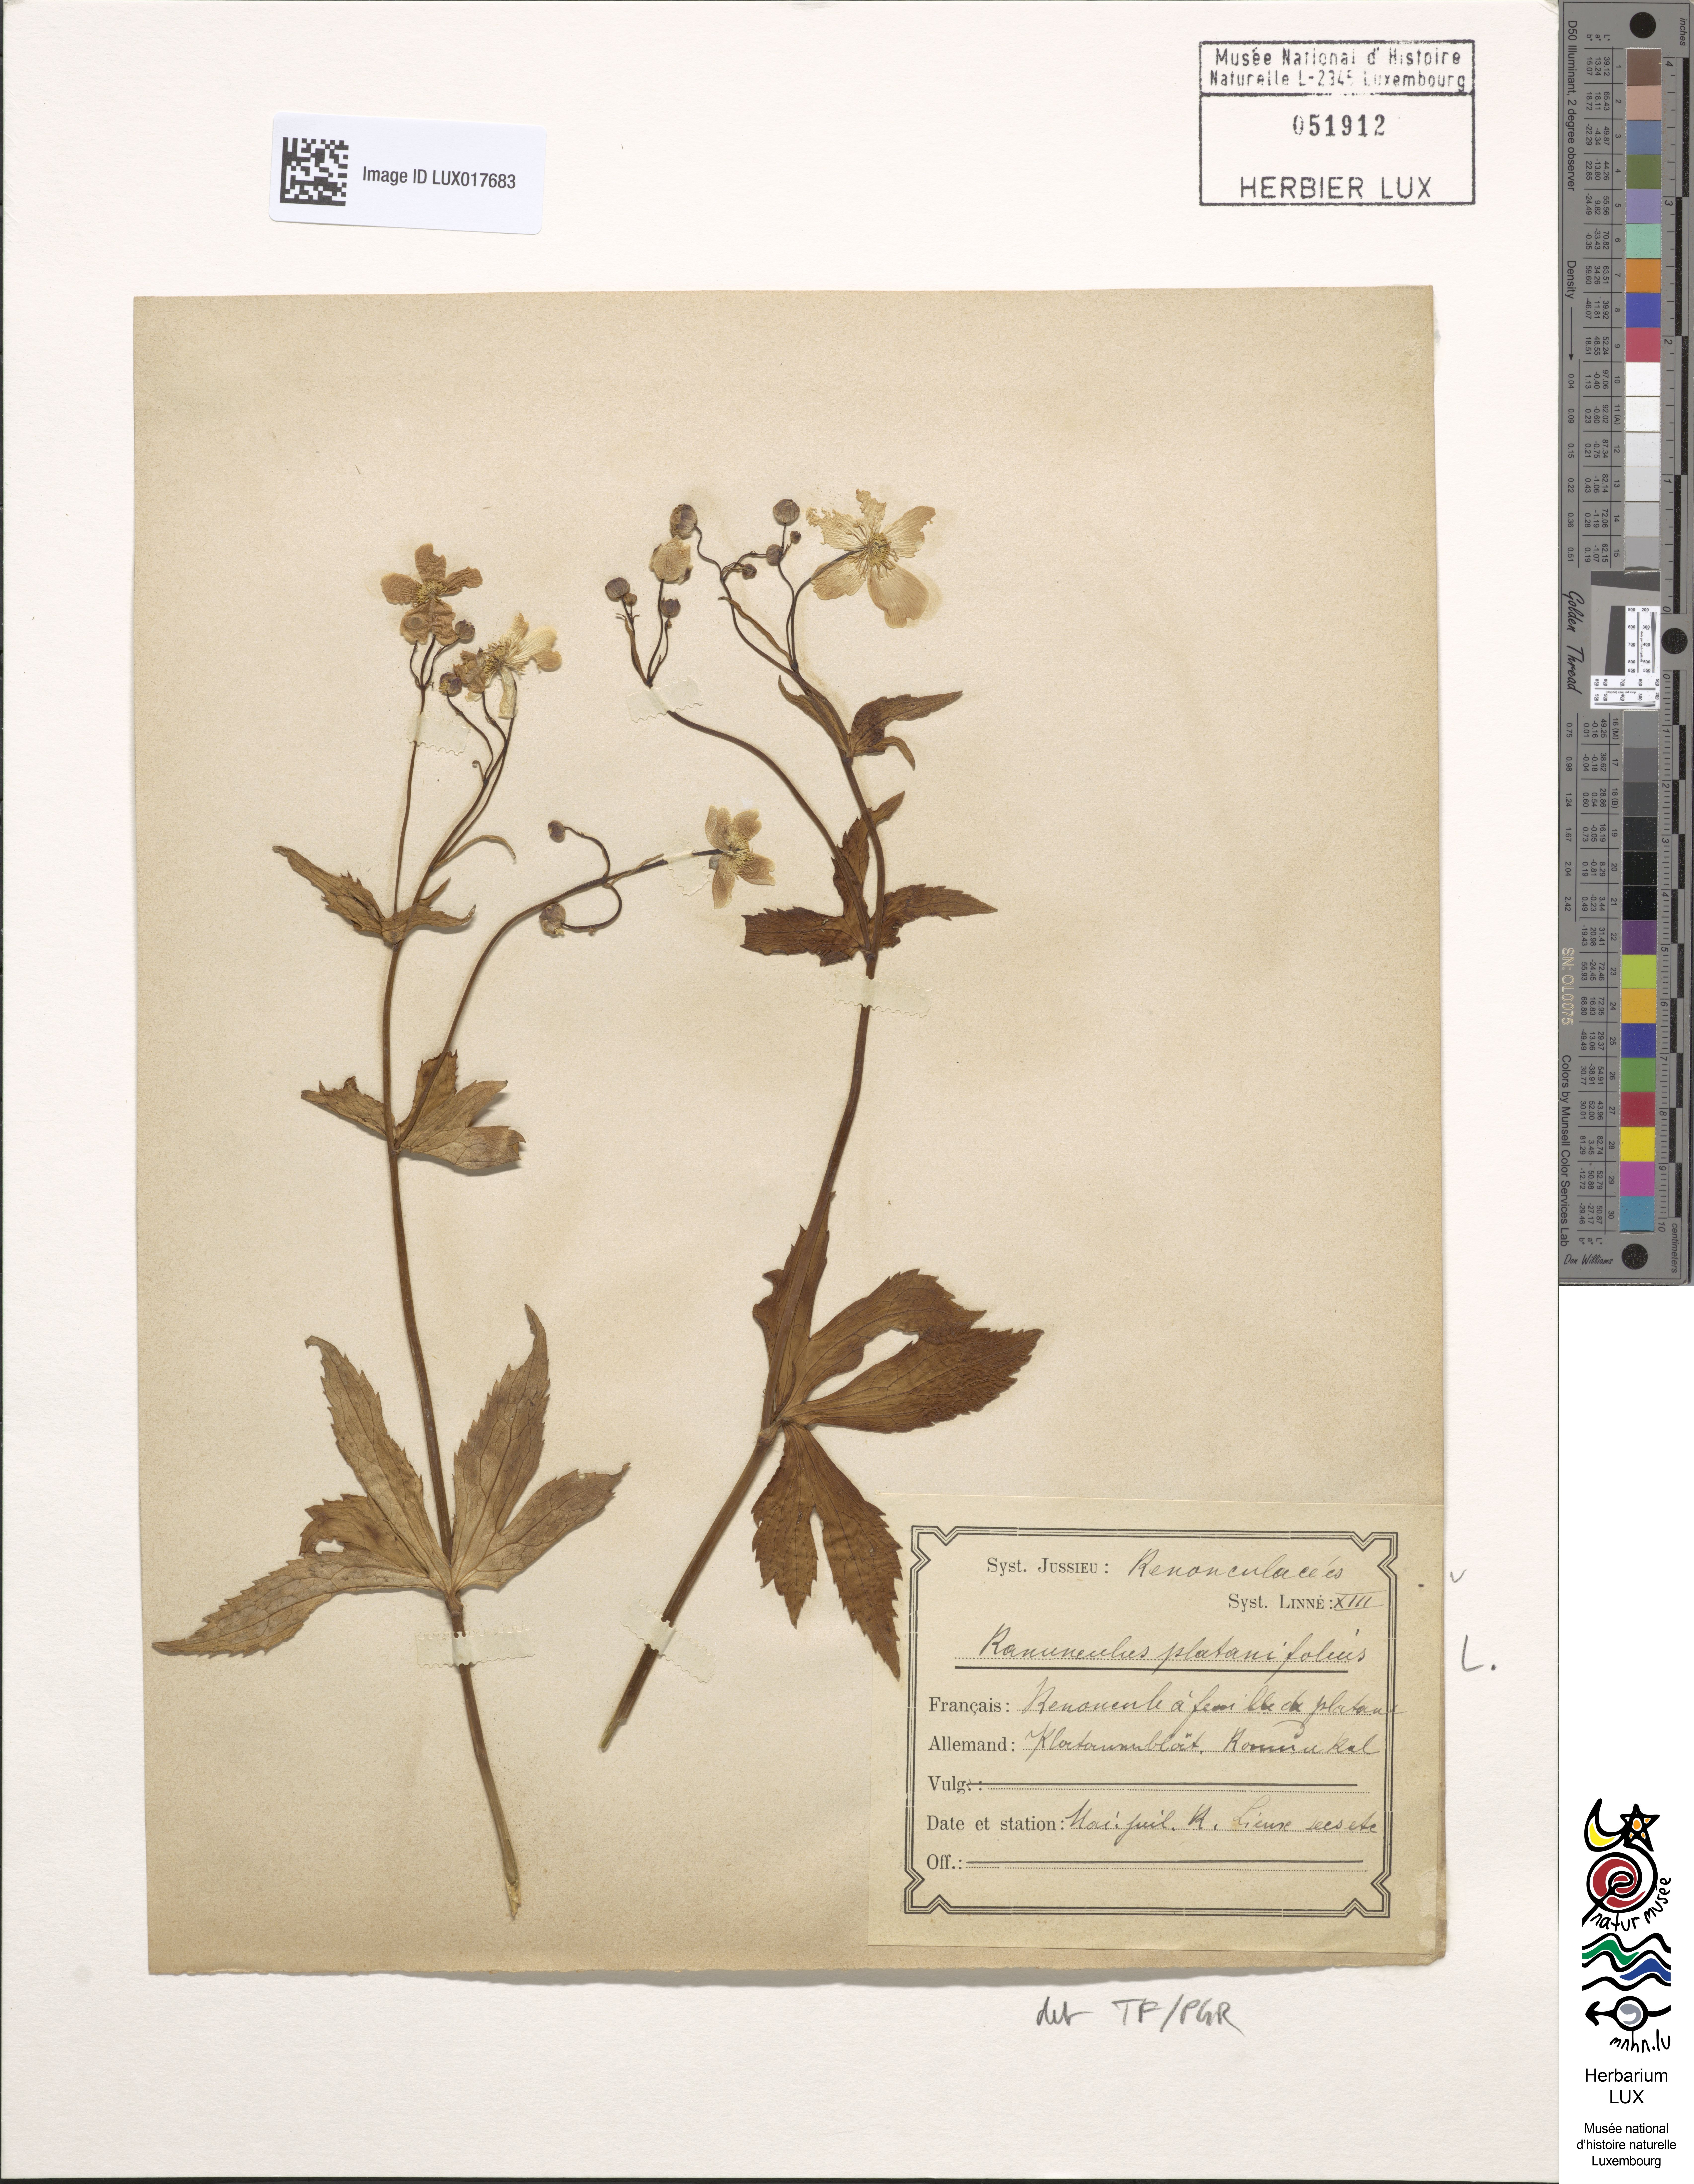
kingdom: Plantae
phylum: Tracheophyta
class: Magnoliopsida
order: Ranunculales
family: Ranunculaceae
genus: Ranunculus
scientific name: Ranunculus platanifolius
